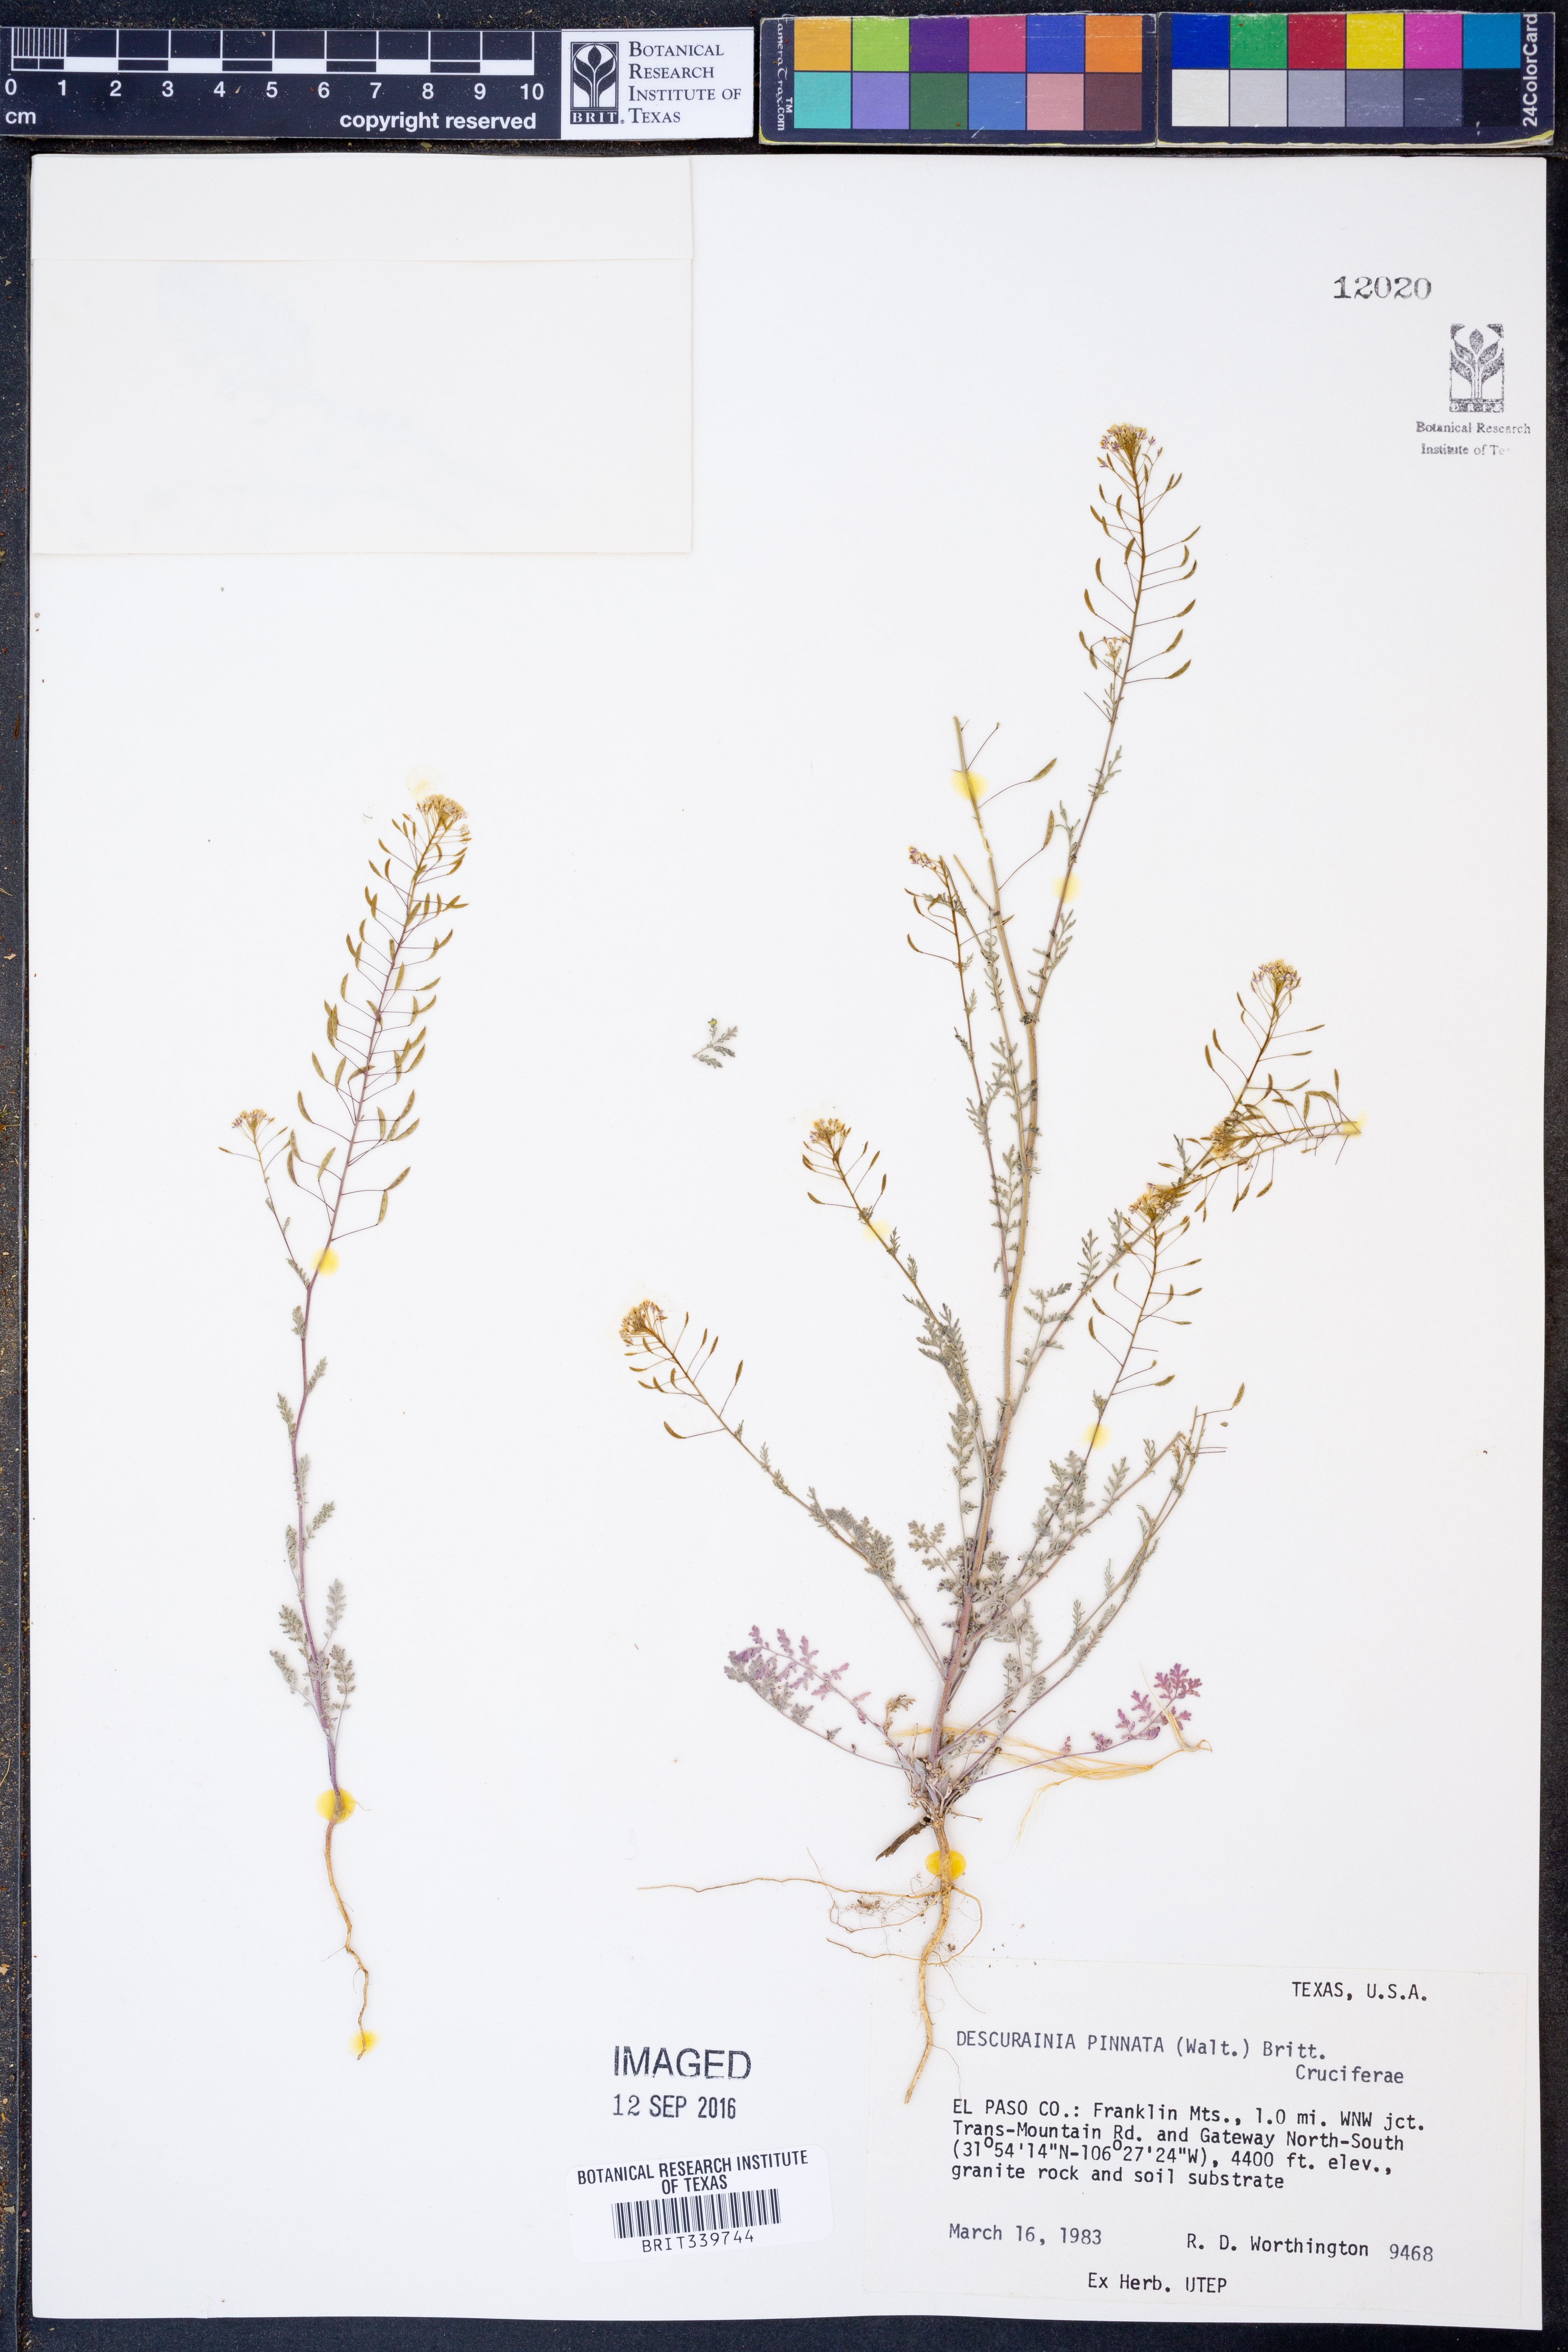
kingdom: Plantae
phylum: Tracheophyta
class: Magnoliopsida
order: Brassicales
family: Brassicaceae
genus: Descurainia
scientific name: Descurainia pinnata
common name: Western tansy mustard
